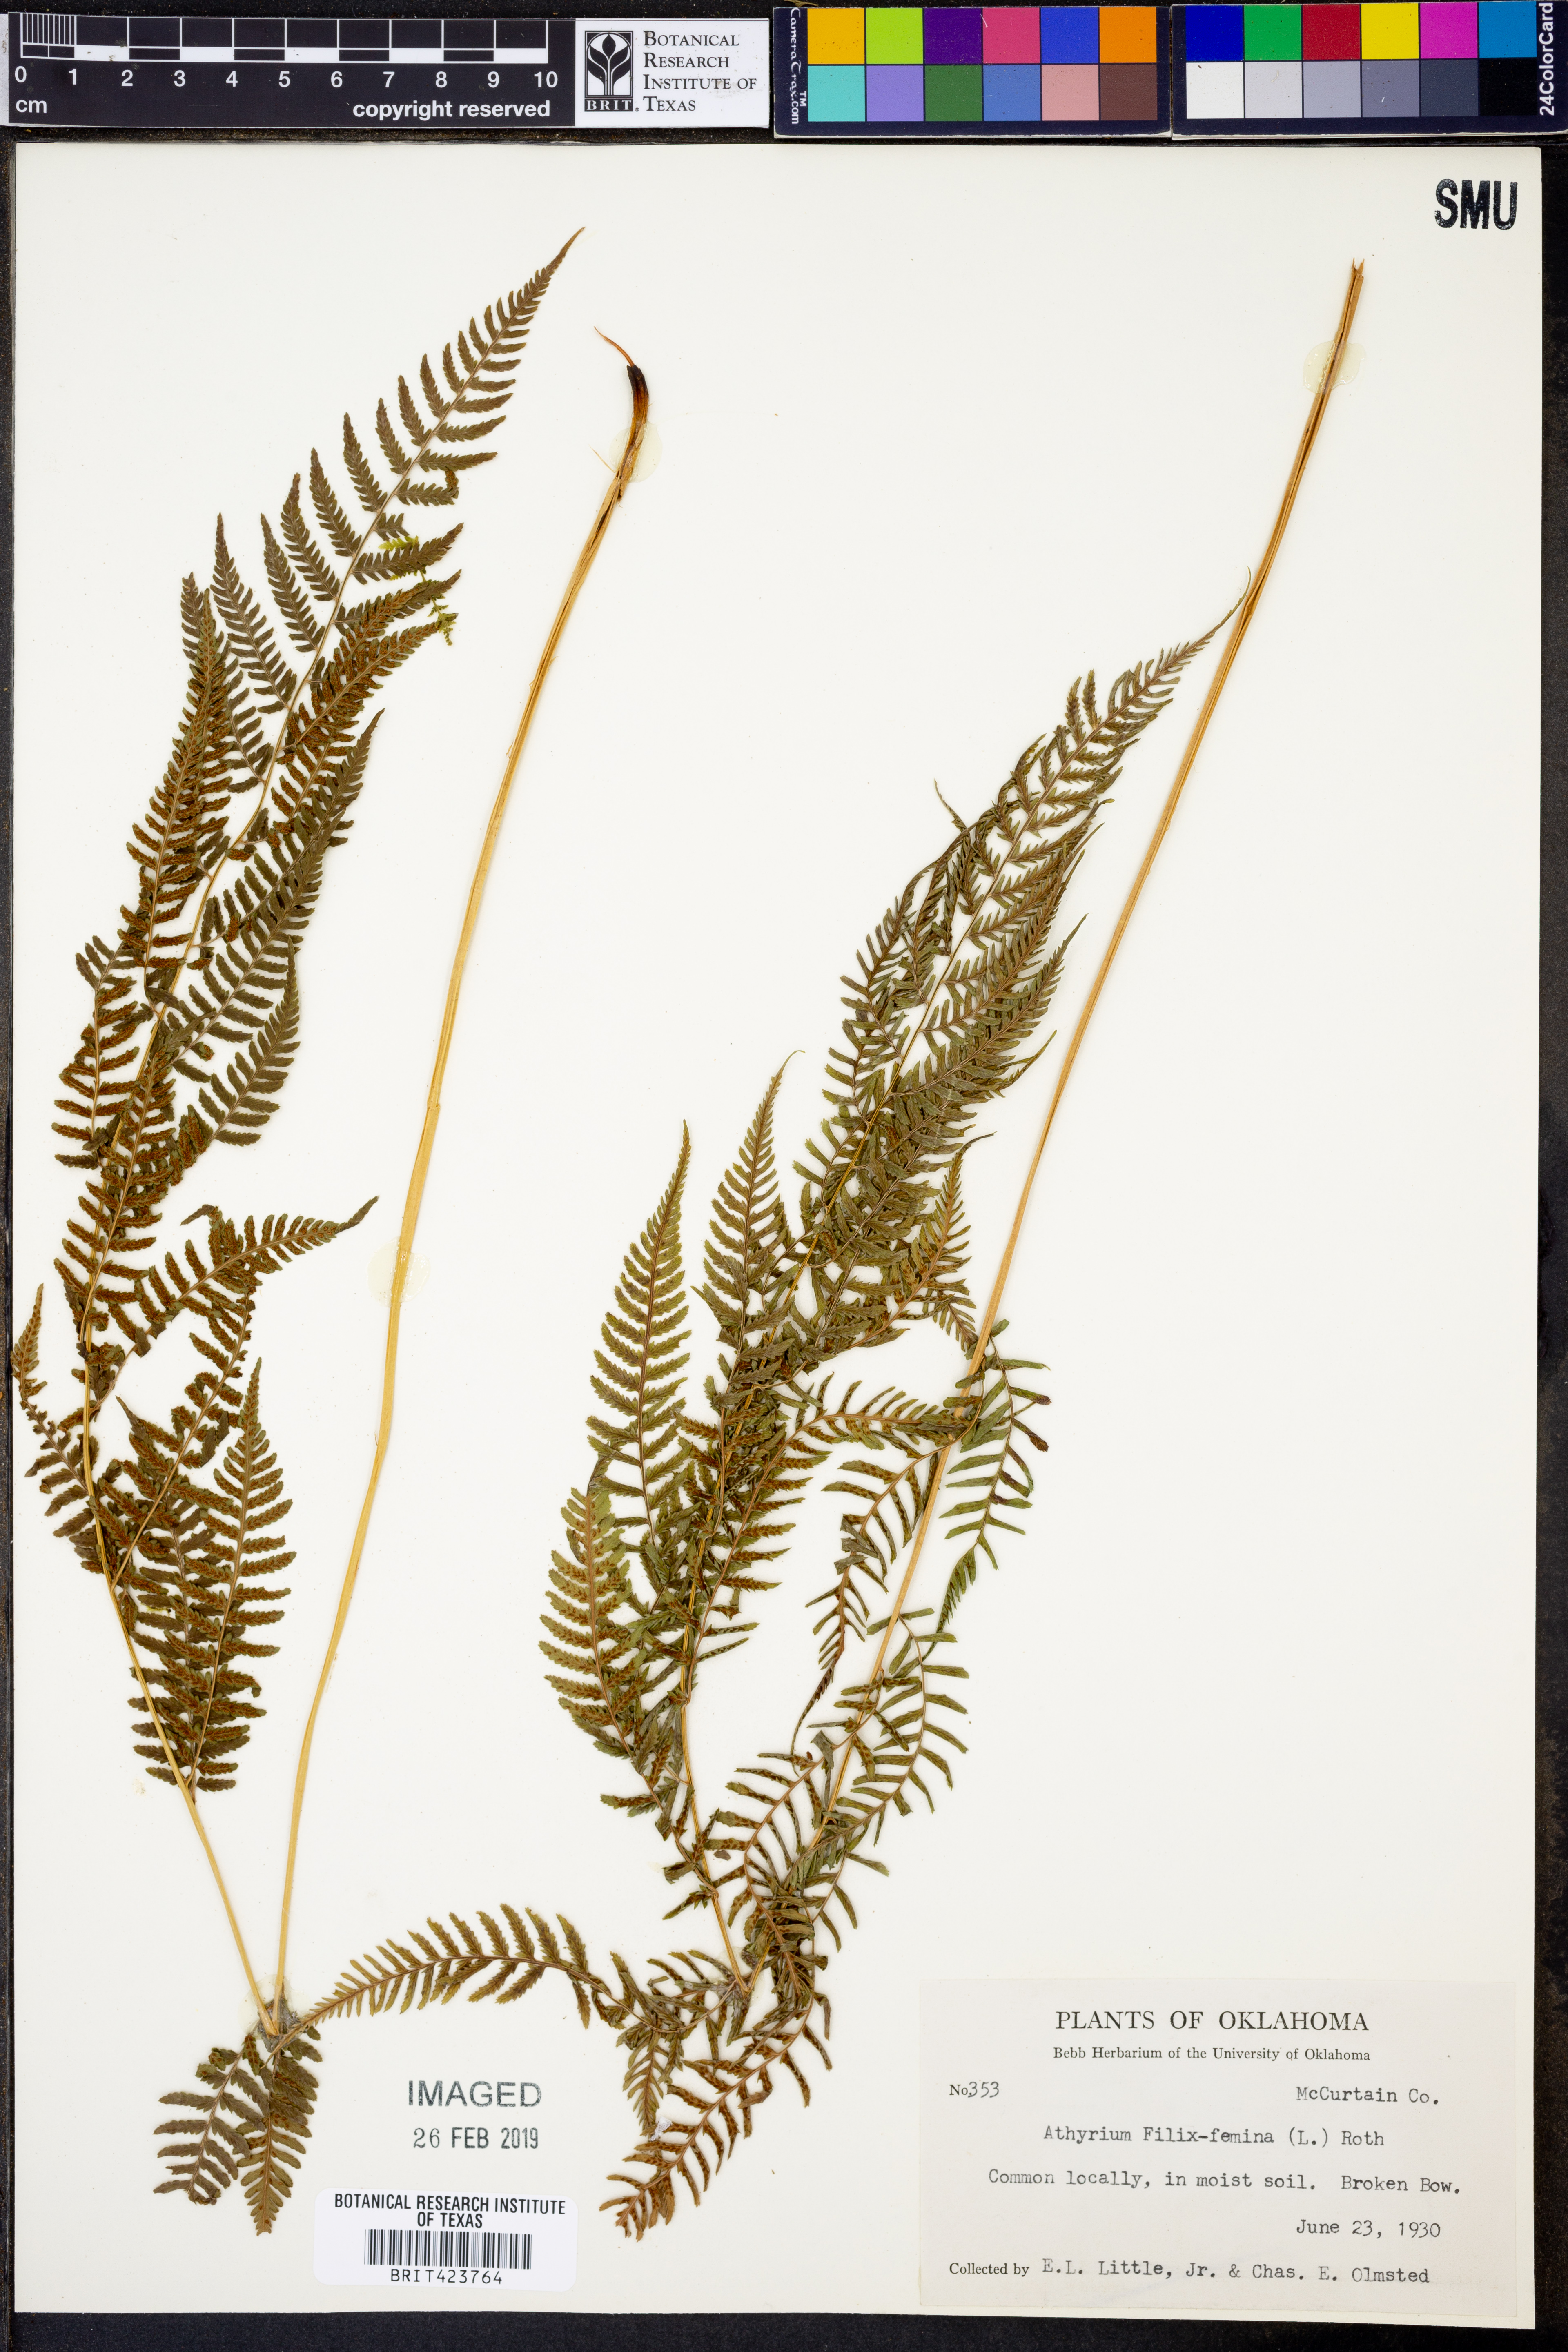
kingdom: Plantae
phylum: Tracheophyta
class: Polypodiopsida
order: Polypodiales
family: Athyriaceae
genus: Athyrium
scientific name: Athyrium filix-femina
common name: Lady fern
